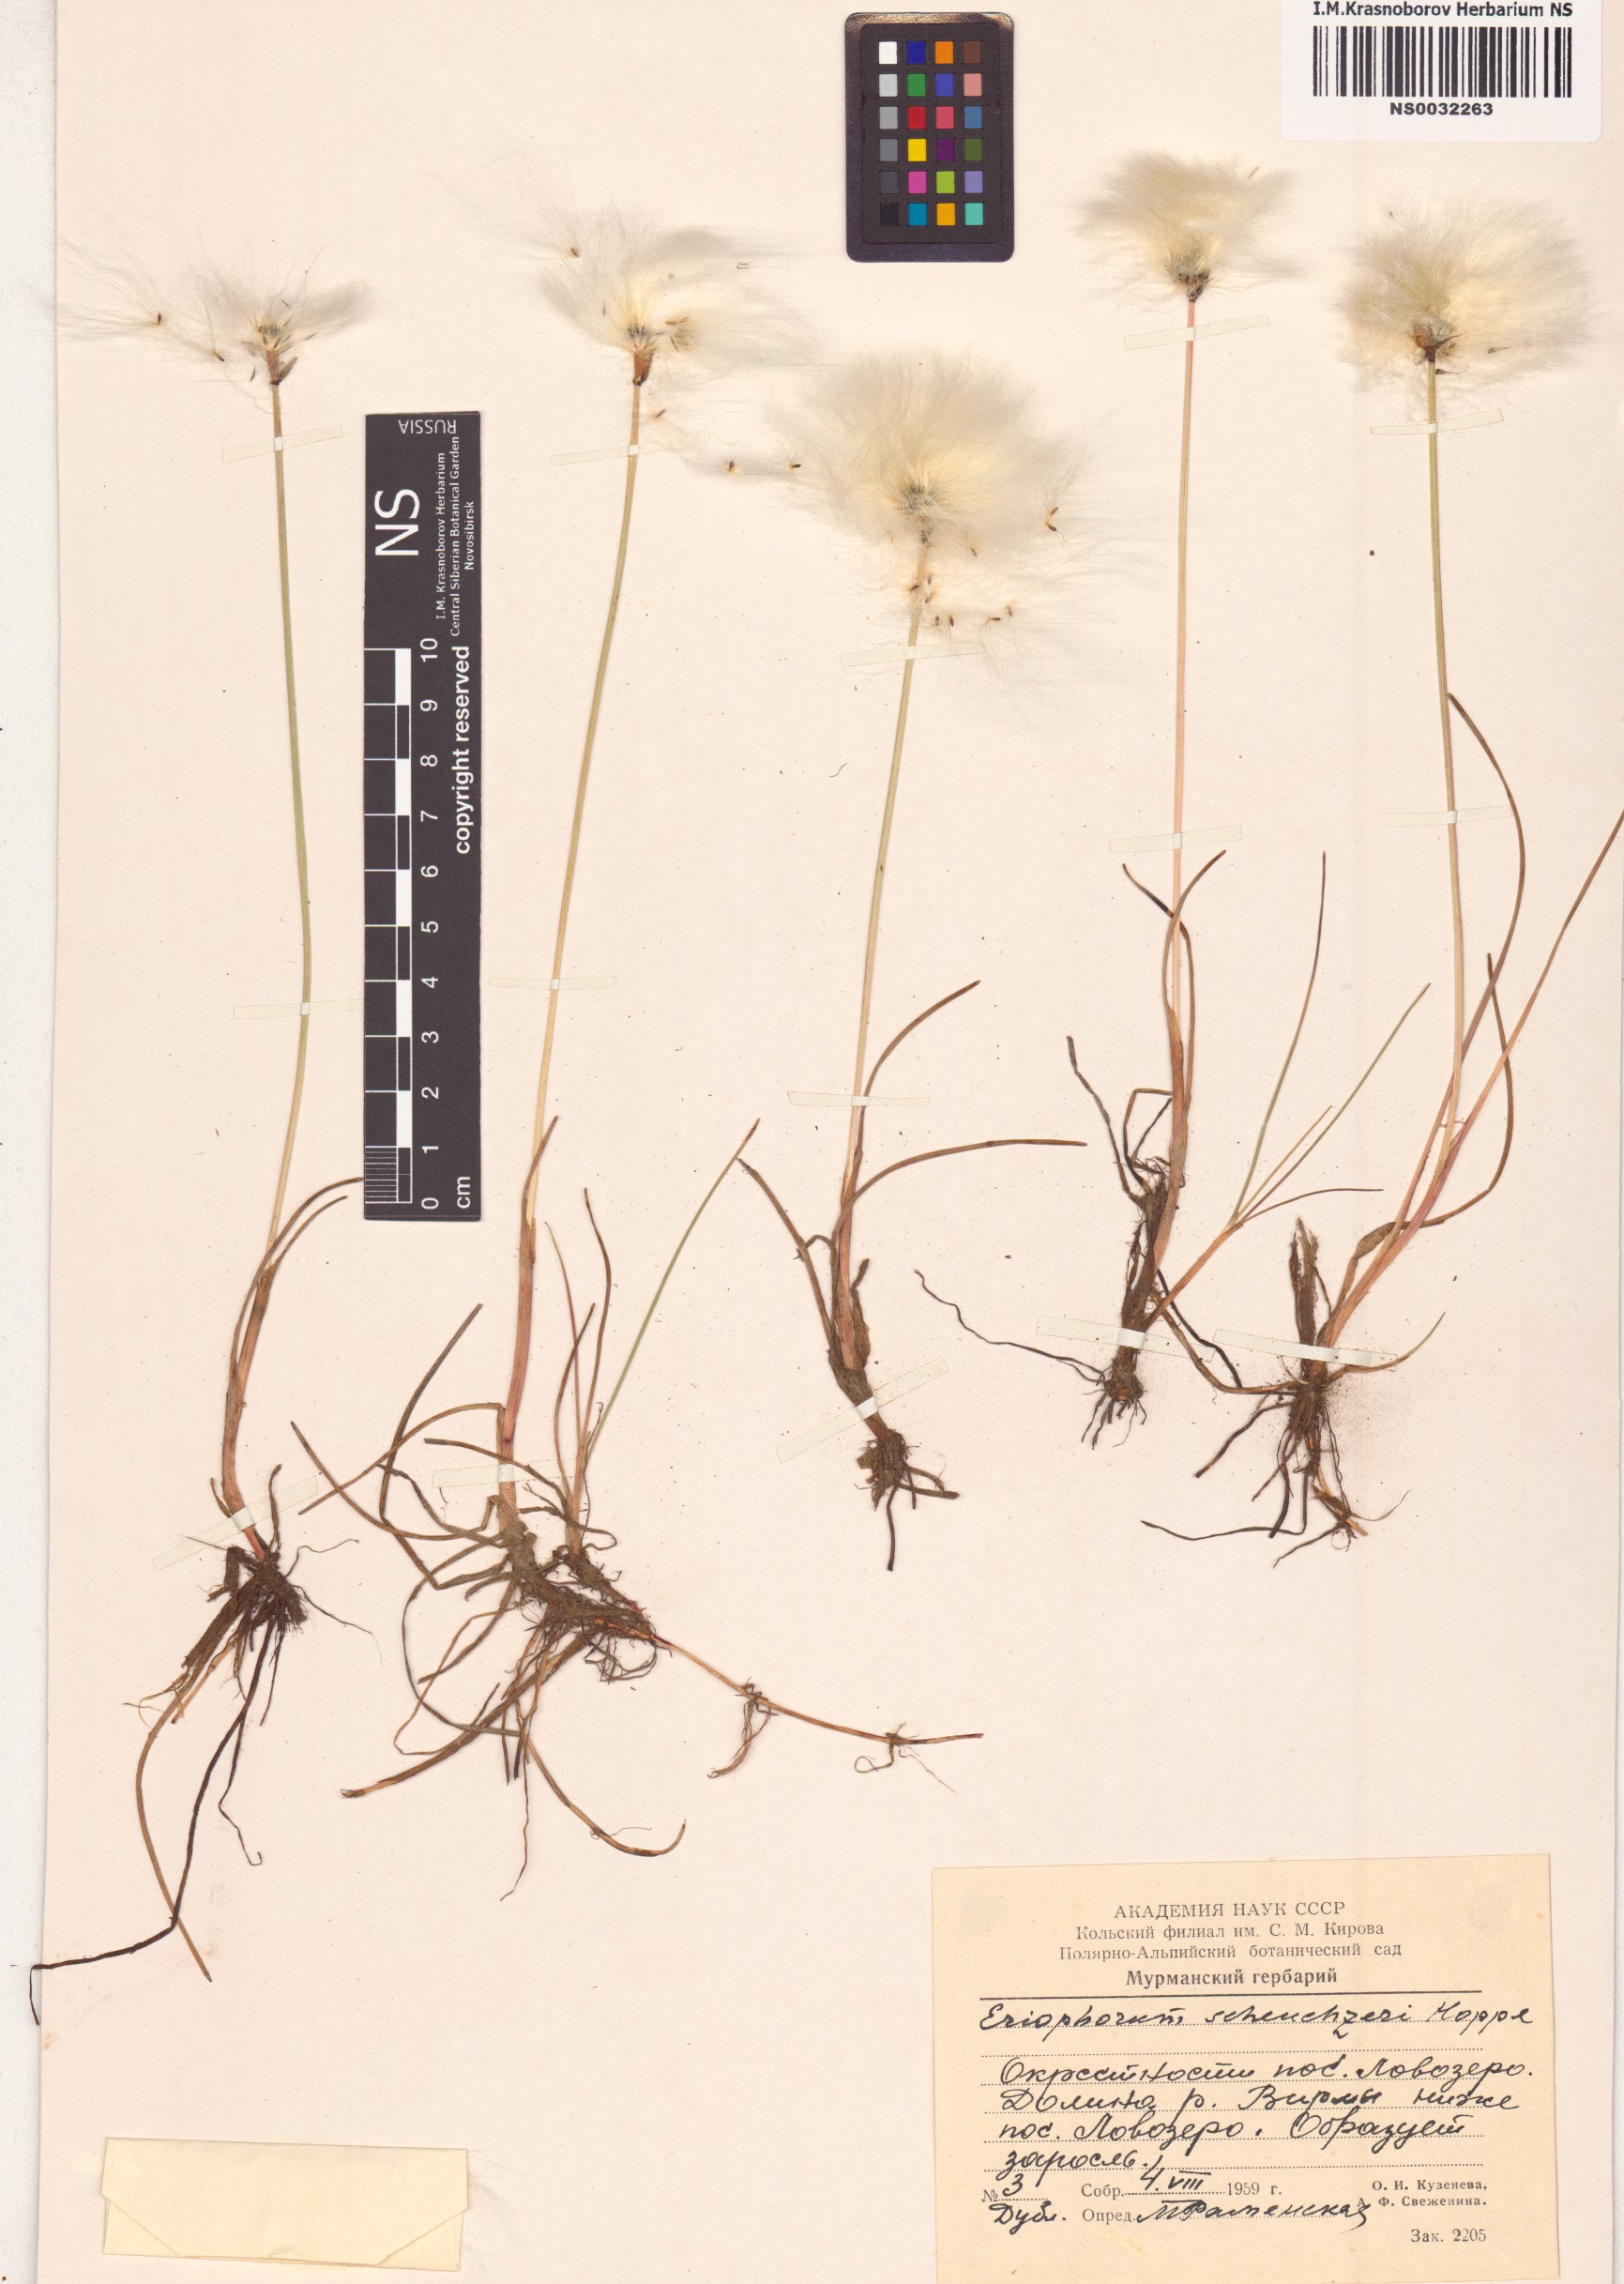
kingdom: Plantae
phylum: Tracheophyta
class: Liliopsida
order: Poales
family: Cyperaceae
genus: Eriophorum
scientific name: Eriophorum scheuchzeri
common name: Scheuchzer's cottongrass
